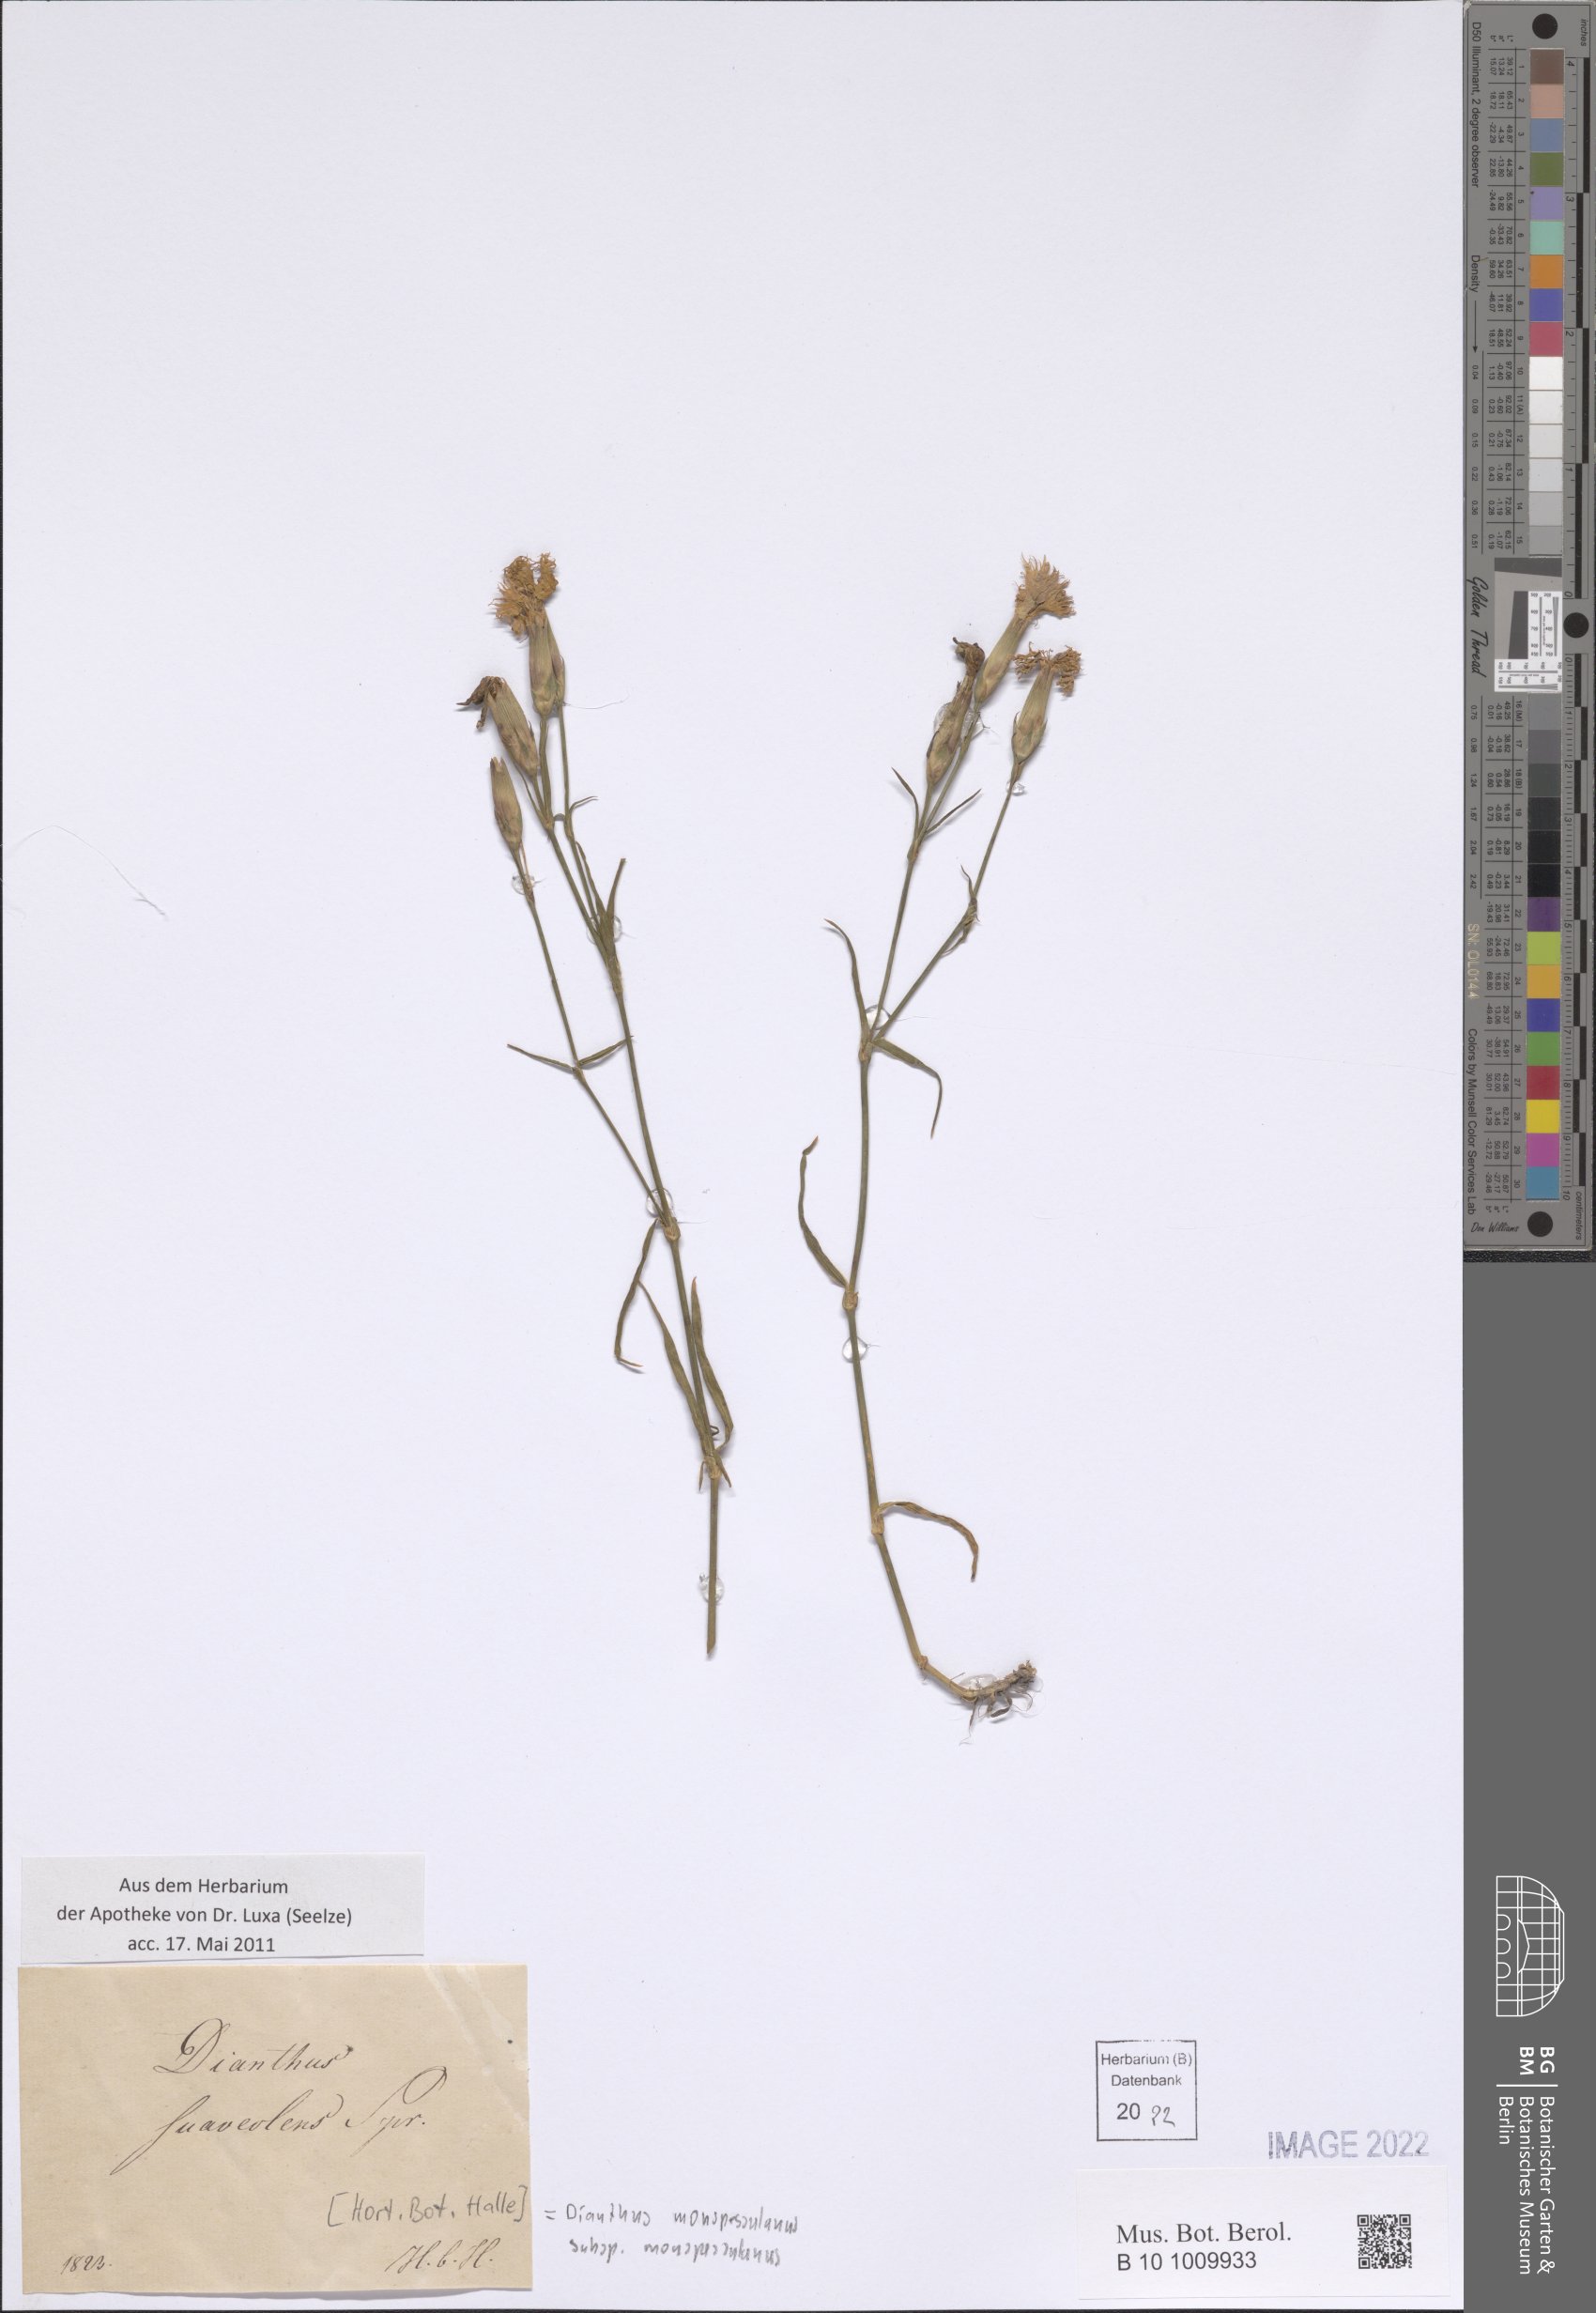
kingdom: Plantae
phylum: Tracheophyta
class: Magnoliopsida
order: Caryophyllales
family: Caryophyllaceae
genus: Dianthus
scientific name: Dianthus hyssopifolius
